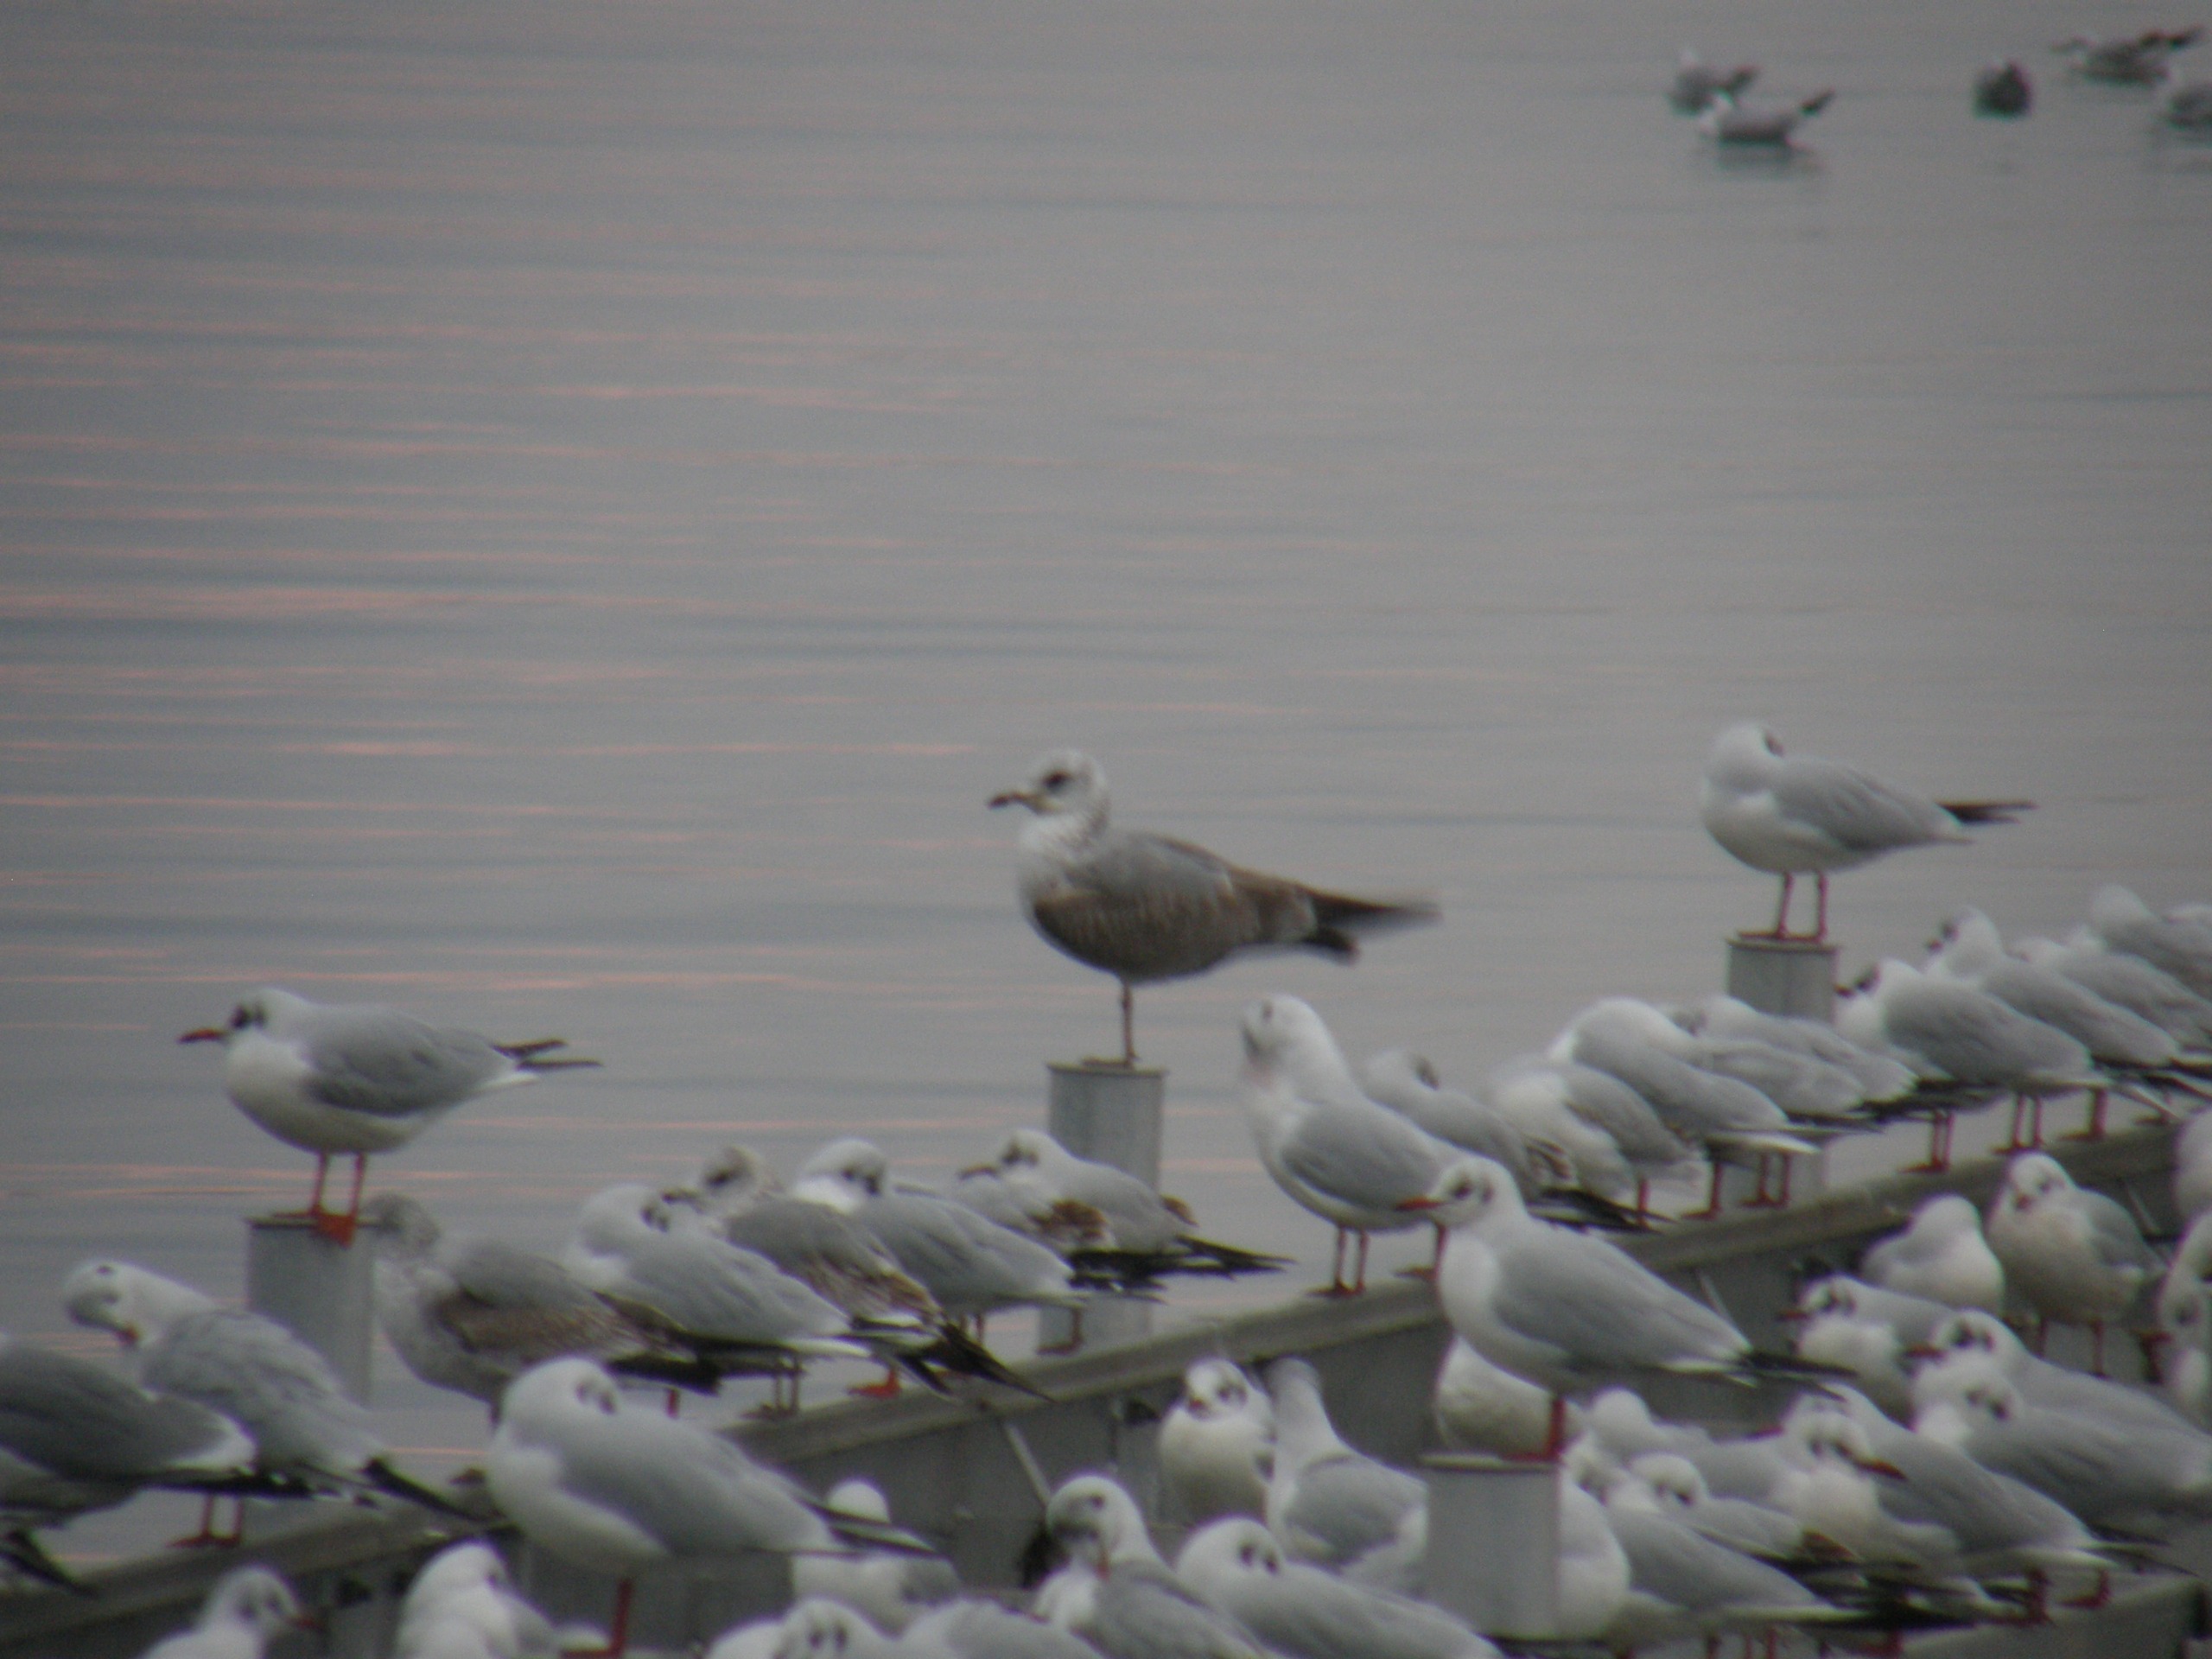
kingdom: Animalia
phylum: Chordata
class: Aves
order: Charadriiformes
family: Laridae
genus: Larus
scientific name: Larus canus
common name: Stormmåge
